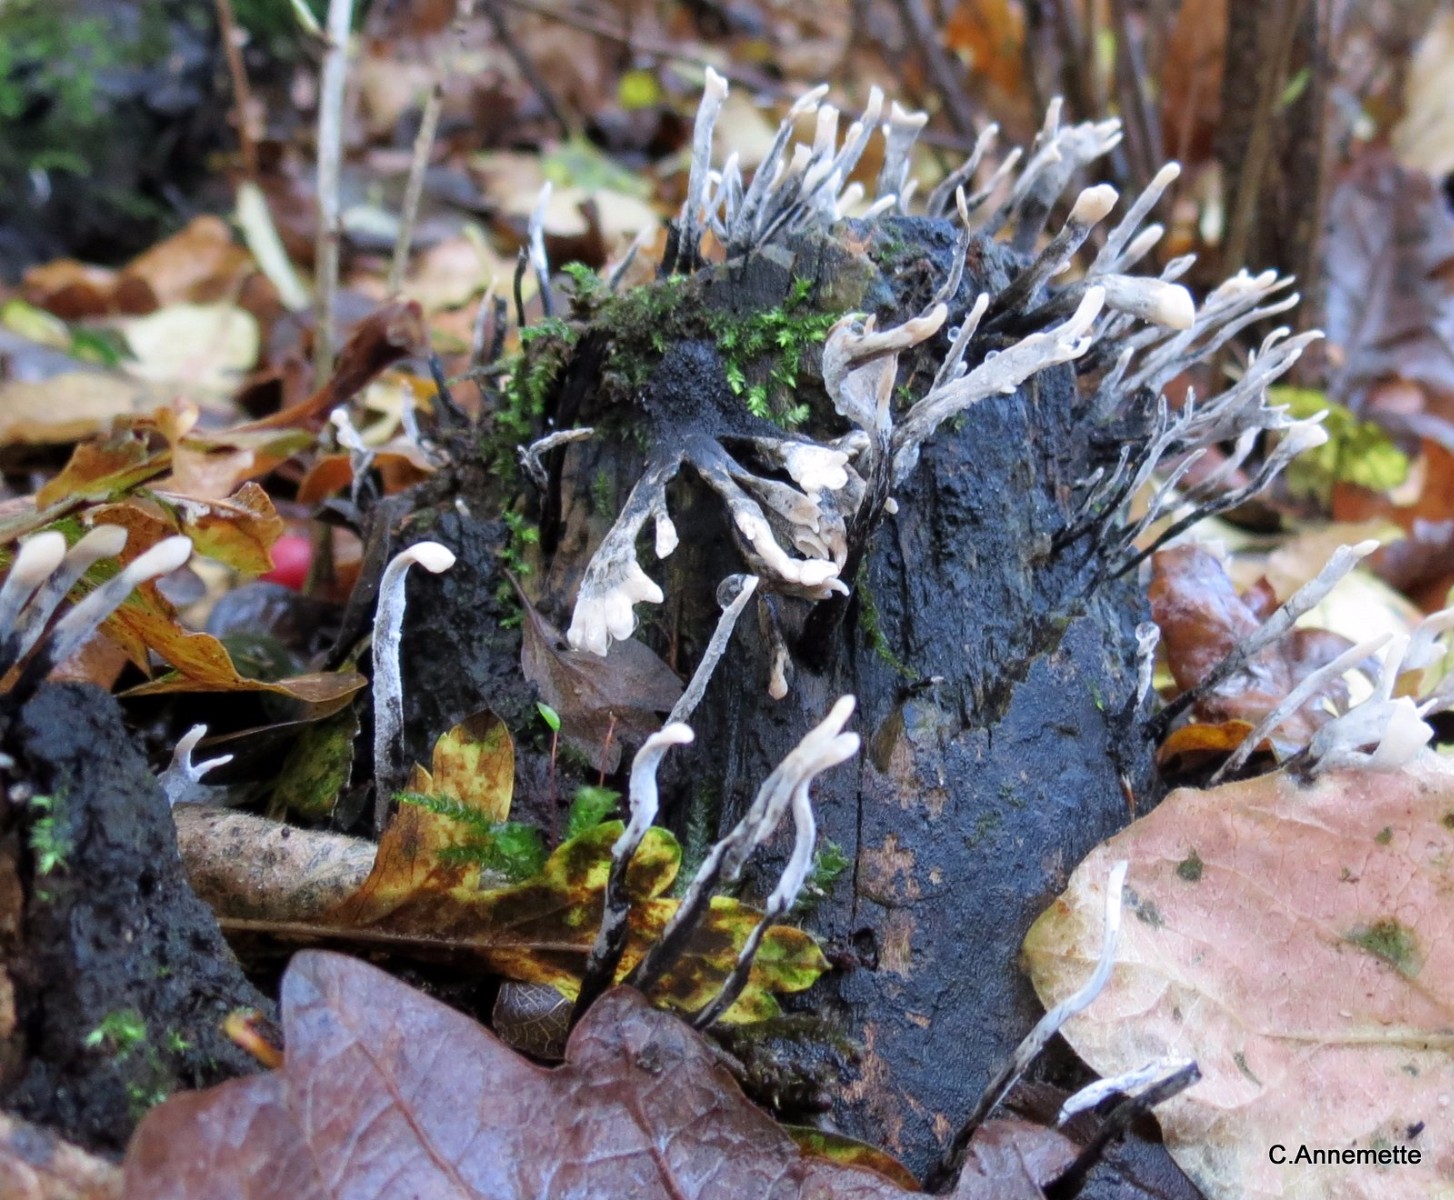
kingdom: Fungi
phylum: Ascomycota
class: Sordariomycetes
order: Xylariales
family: Xylariaceae
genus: Xylaria
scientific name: Xylaria hypoxylon
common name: grenet stødsvamp
